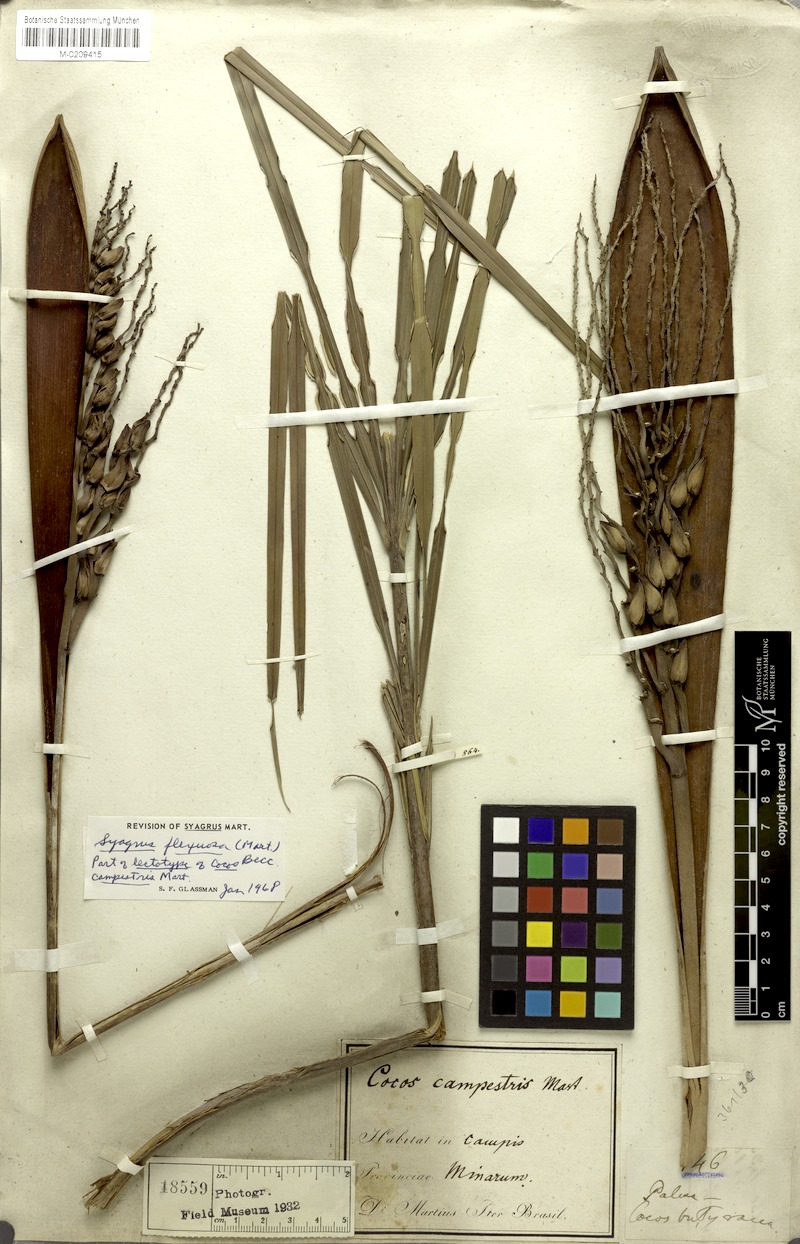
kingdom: Plantae
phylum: Tracheophyta
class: Liliopsida
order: Arecales
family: Arecaceae
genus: Syagrus
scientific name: Syagrus campestris
